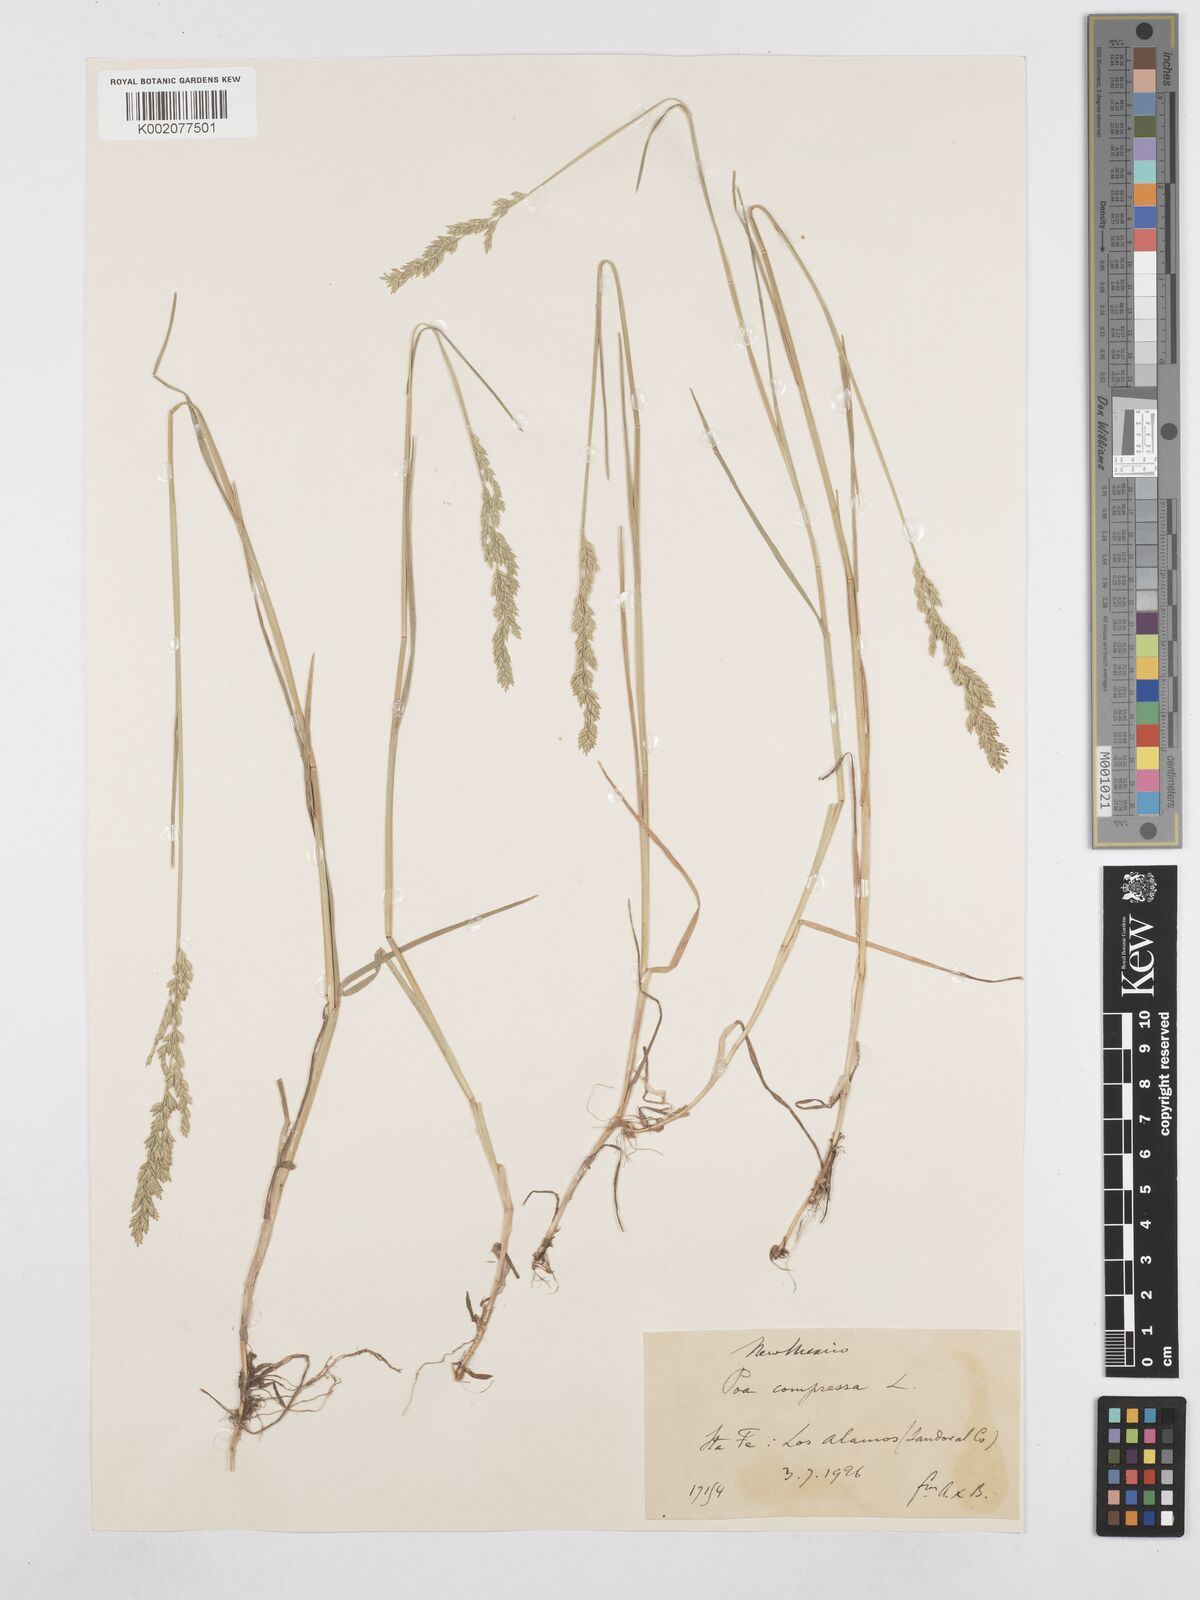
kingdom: Plantae
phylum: Tracheophyta
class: Liliopsida
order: Poales
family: Poaceae
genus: Poa
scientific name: Poa compressa
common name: Canada bluegrass
